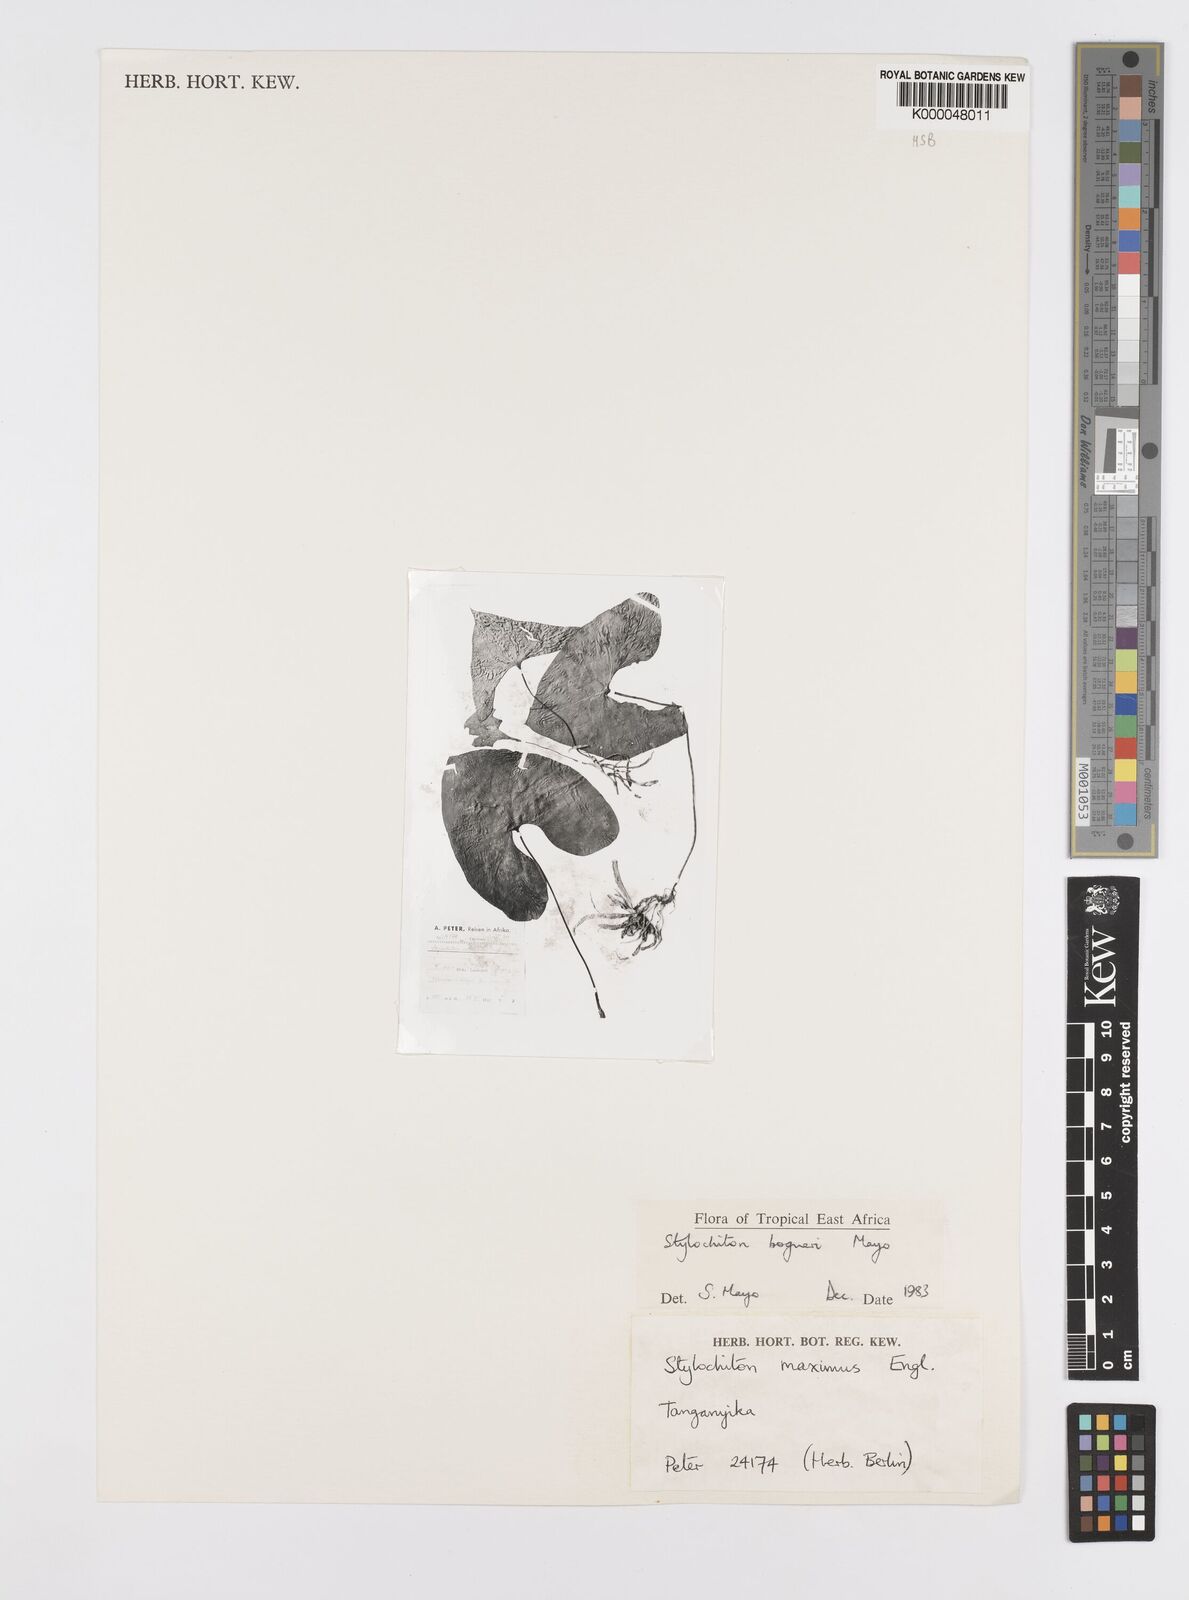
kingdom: Plantae
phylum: Tracheophyta
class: Liliopsida
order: Alismatales
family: Araceae
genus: Stylochaeton
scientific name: Stylochaeton bogneri
